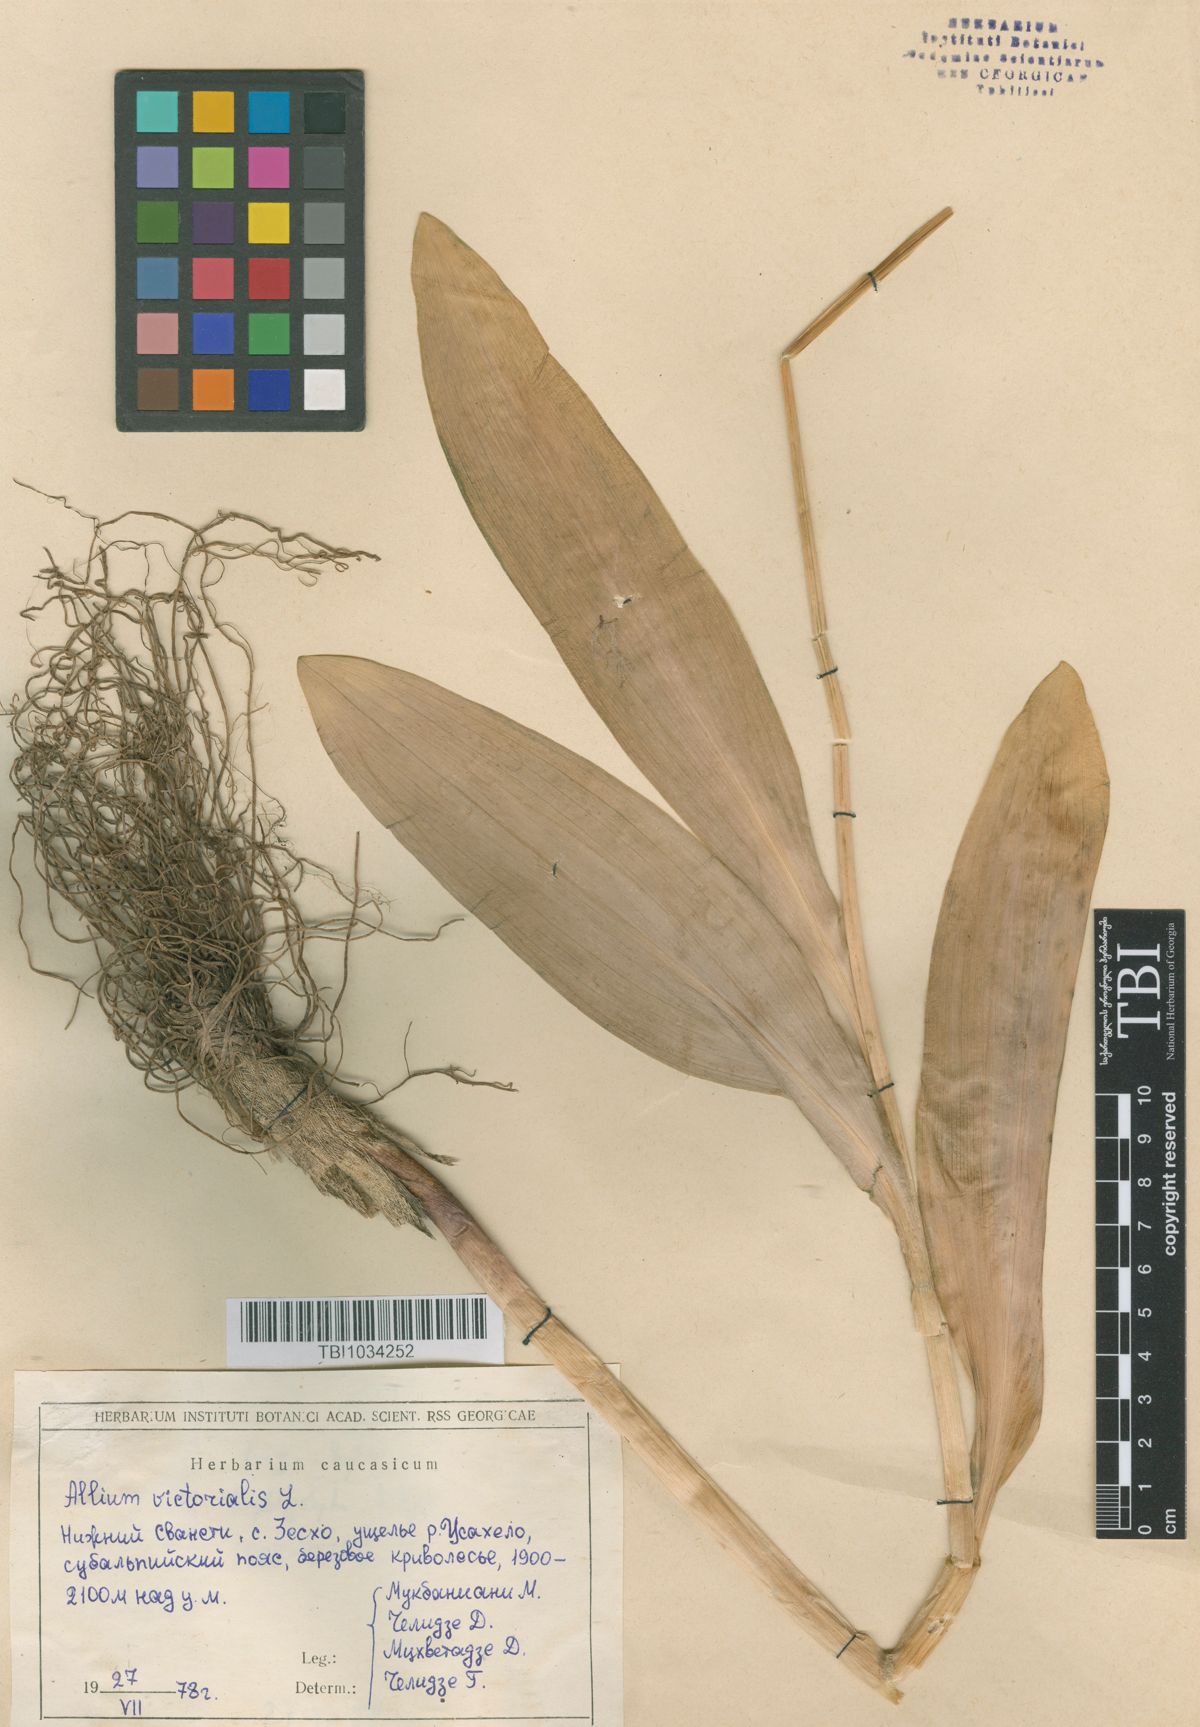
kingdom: Plantae
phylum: Tracheophyta
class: Liliopsida
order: Asparagales
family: Amaryllidaceae
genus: Allium
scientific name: Allium victorialis
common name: Alpine leek
